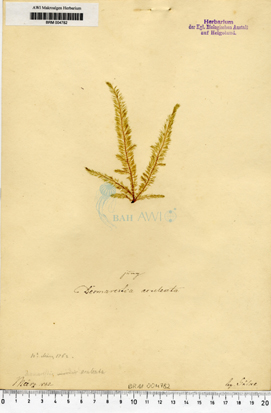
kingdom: Chromista
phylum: Ochrophyta
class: Phaeophyceae
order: Desmarestiales
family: Desmarestiaceae
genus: Desmarestia
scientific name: Desmarestia aculeata
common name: Witch's hair
